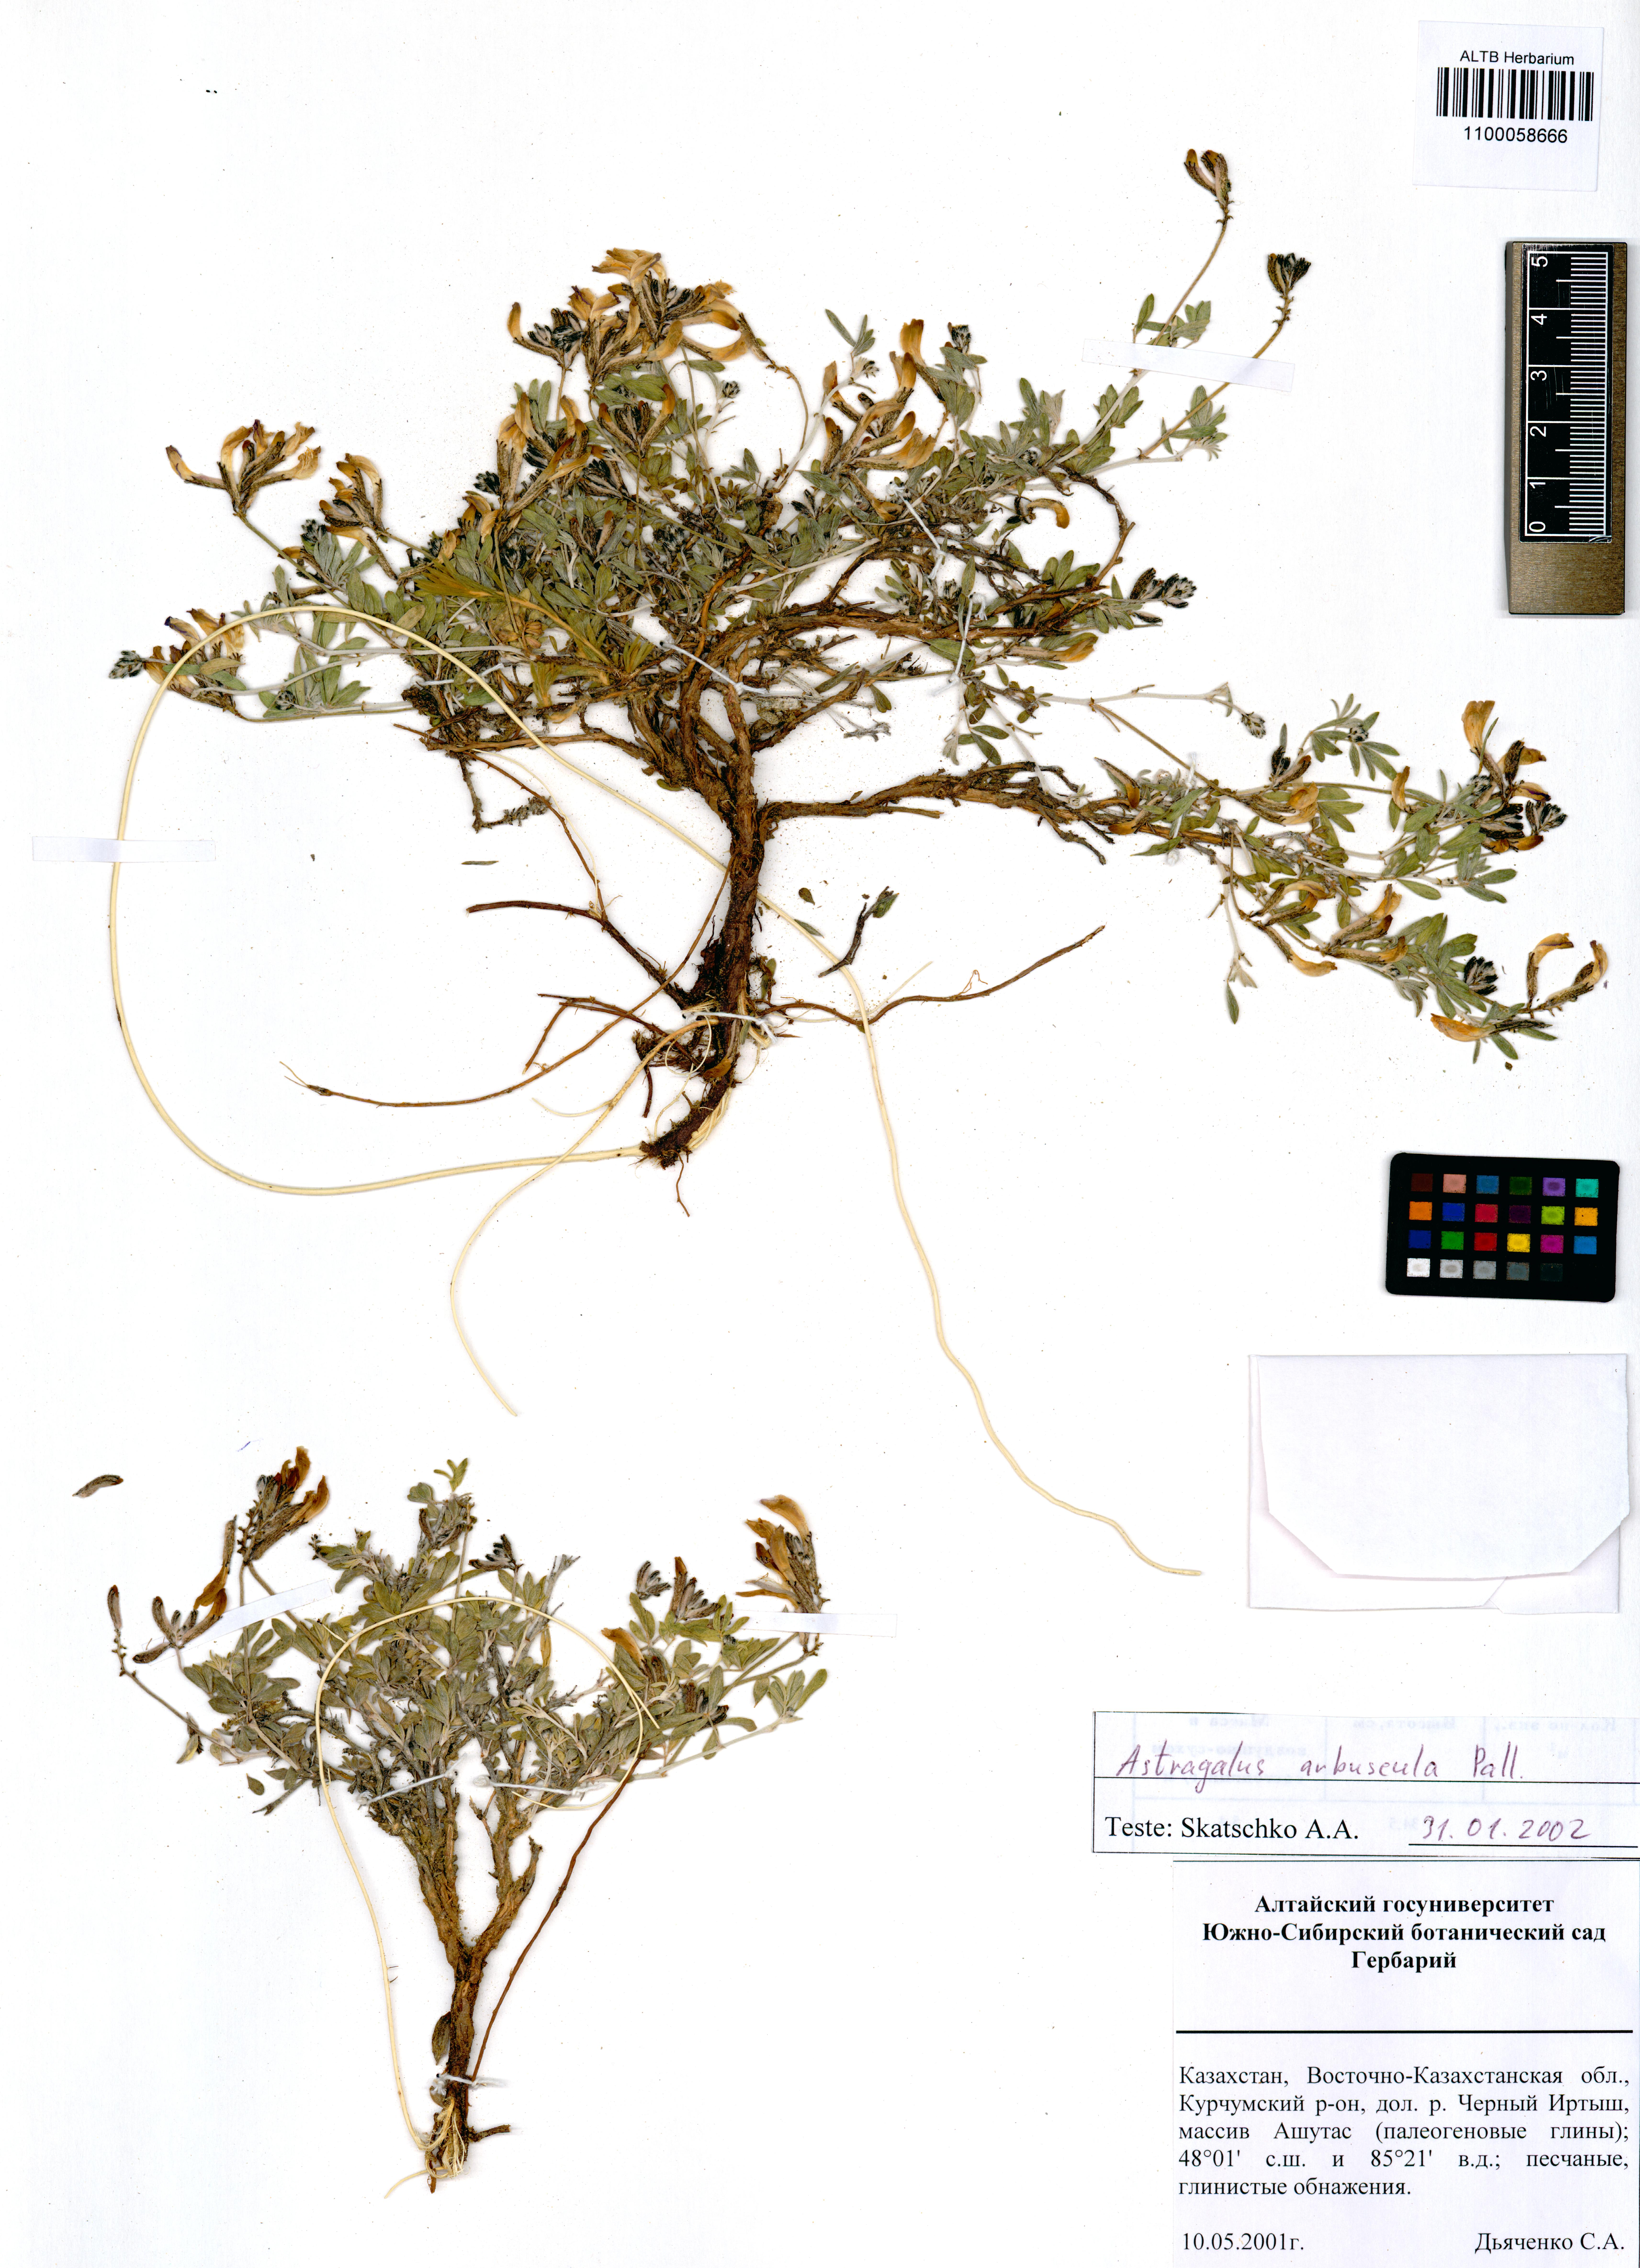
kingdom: Plantae
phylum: Tracheophyta
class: Magnoliopsida
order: Fabales
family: Fabaceae
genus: Astragalus
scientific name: Astragalus arbuscula
